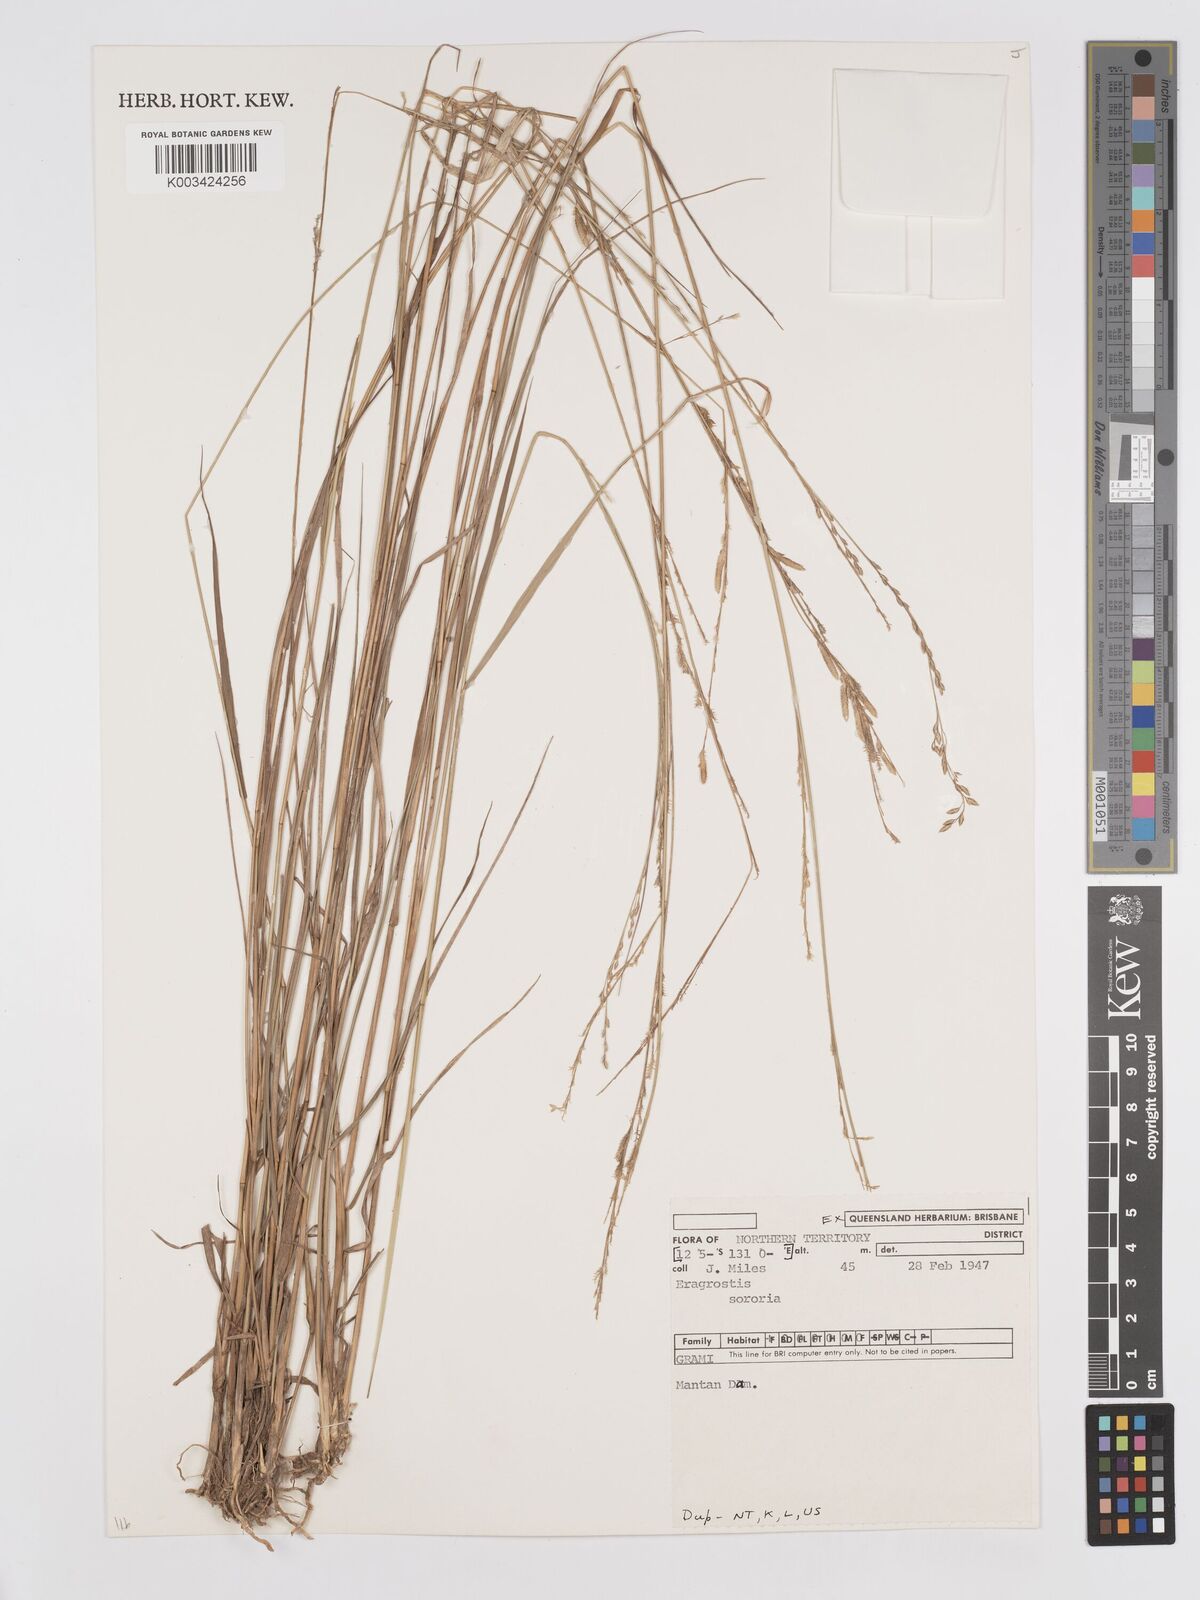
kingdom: Plantae
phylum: Tracheophyta
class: Liliopsida
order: Poales
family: Poaceae
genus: Eragrostis
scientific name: Eragrostis sororia
